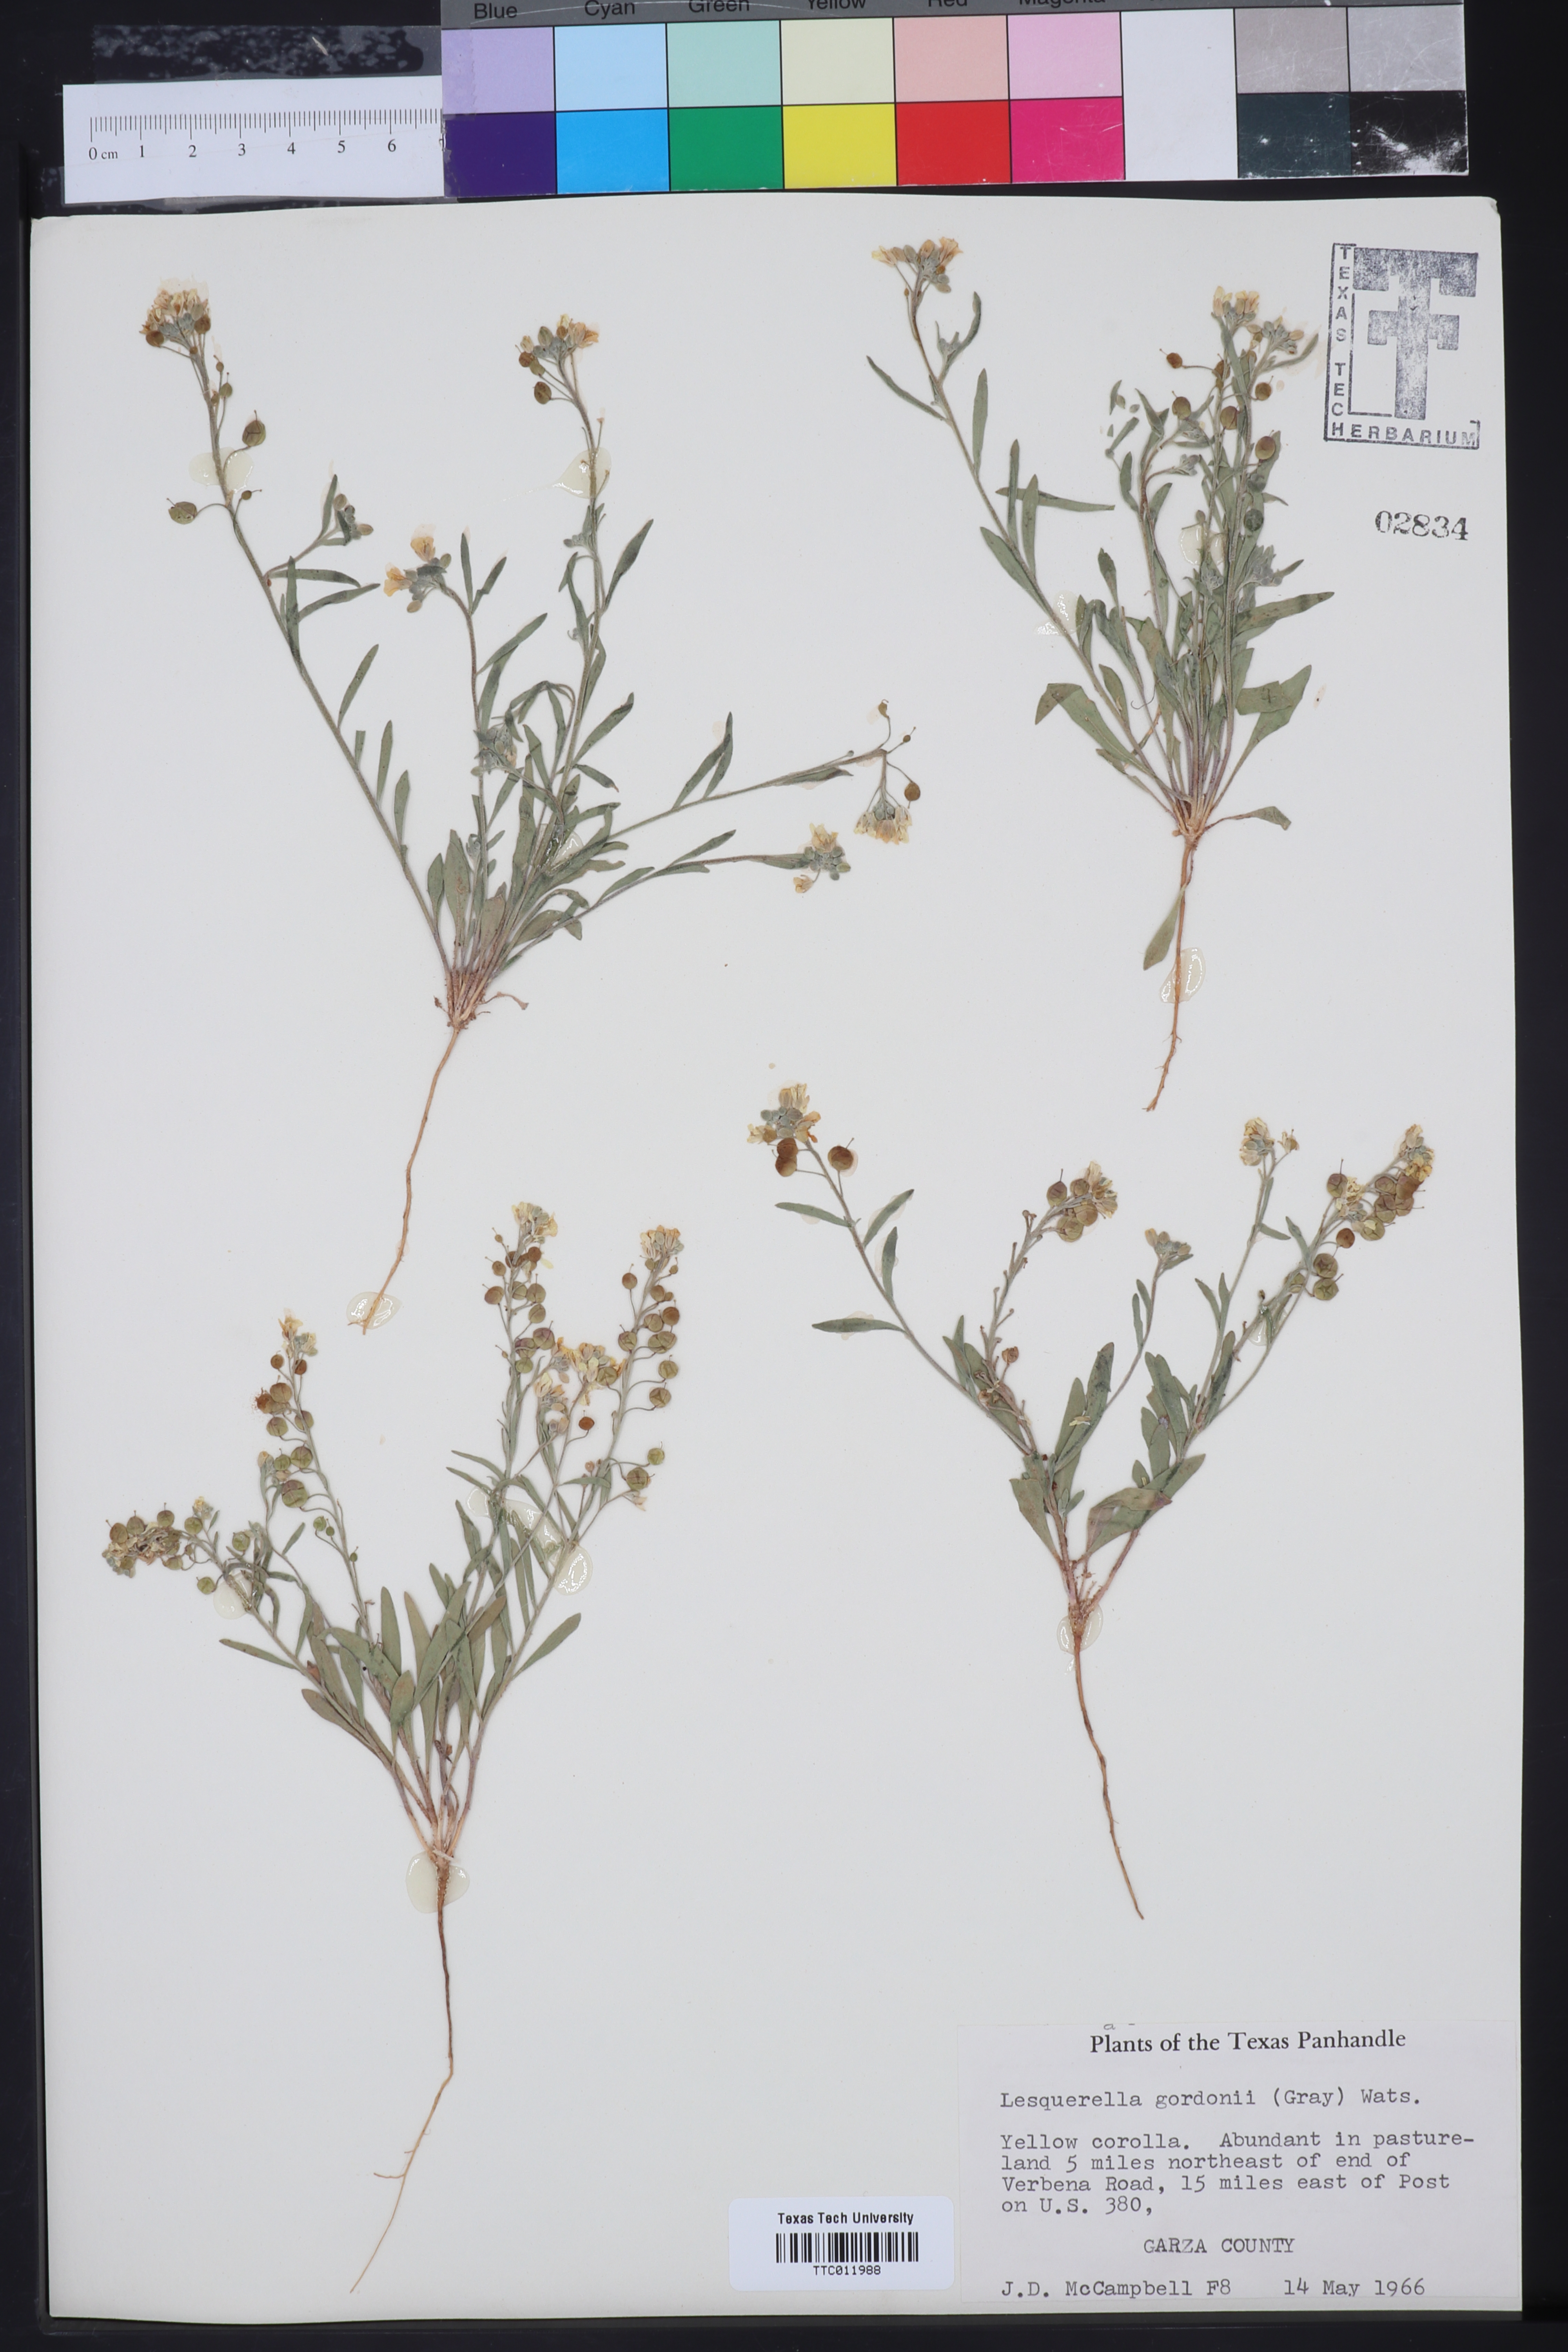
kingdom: Plantae
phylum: Tracheophyta
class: Magnoliopsida
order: Brassicales
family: Brassicaceae
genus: Physaria
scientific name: Physaria gordonii
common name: Gordon's bladderpod
